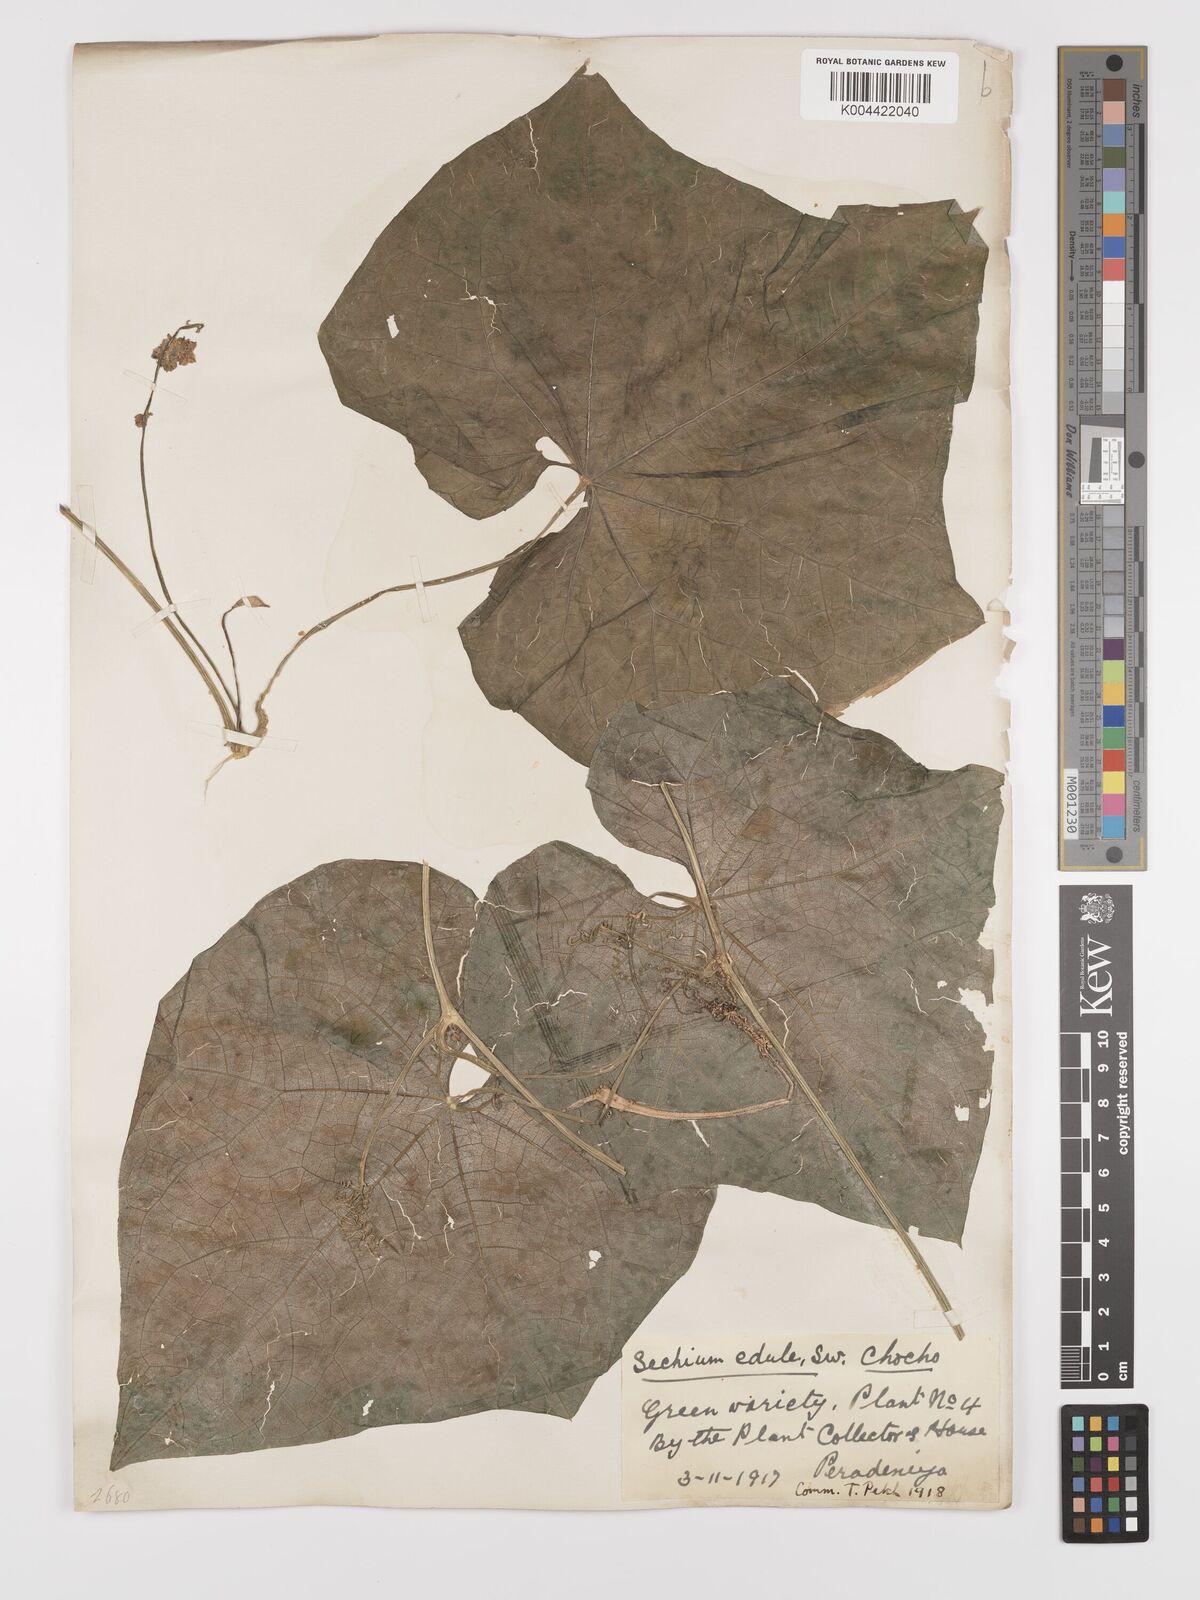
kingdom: Plantae
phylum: Tracheophyta
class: Magnoliopsida
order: Cucurbitales
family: Cucurbitaceae
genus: Sechium
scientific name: Sechium edule
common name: Chayote
